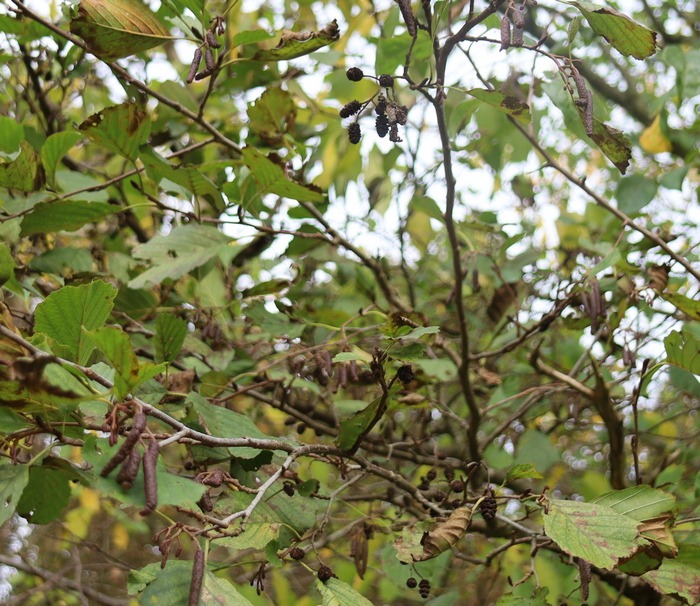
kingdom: Plantae
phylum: Tracheophyta
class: Magnoliopsida
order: Fagales
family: Betulaceae
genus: Alnus
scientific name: Alnus glutinosa
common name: Rød-el
